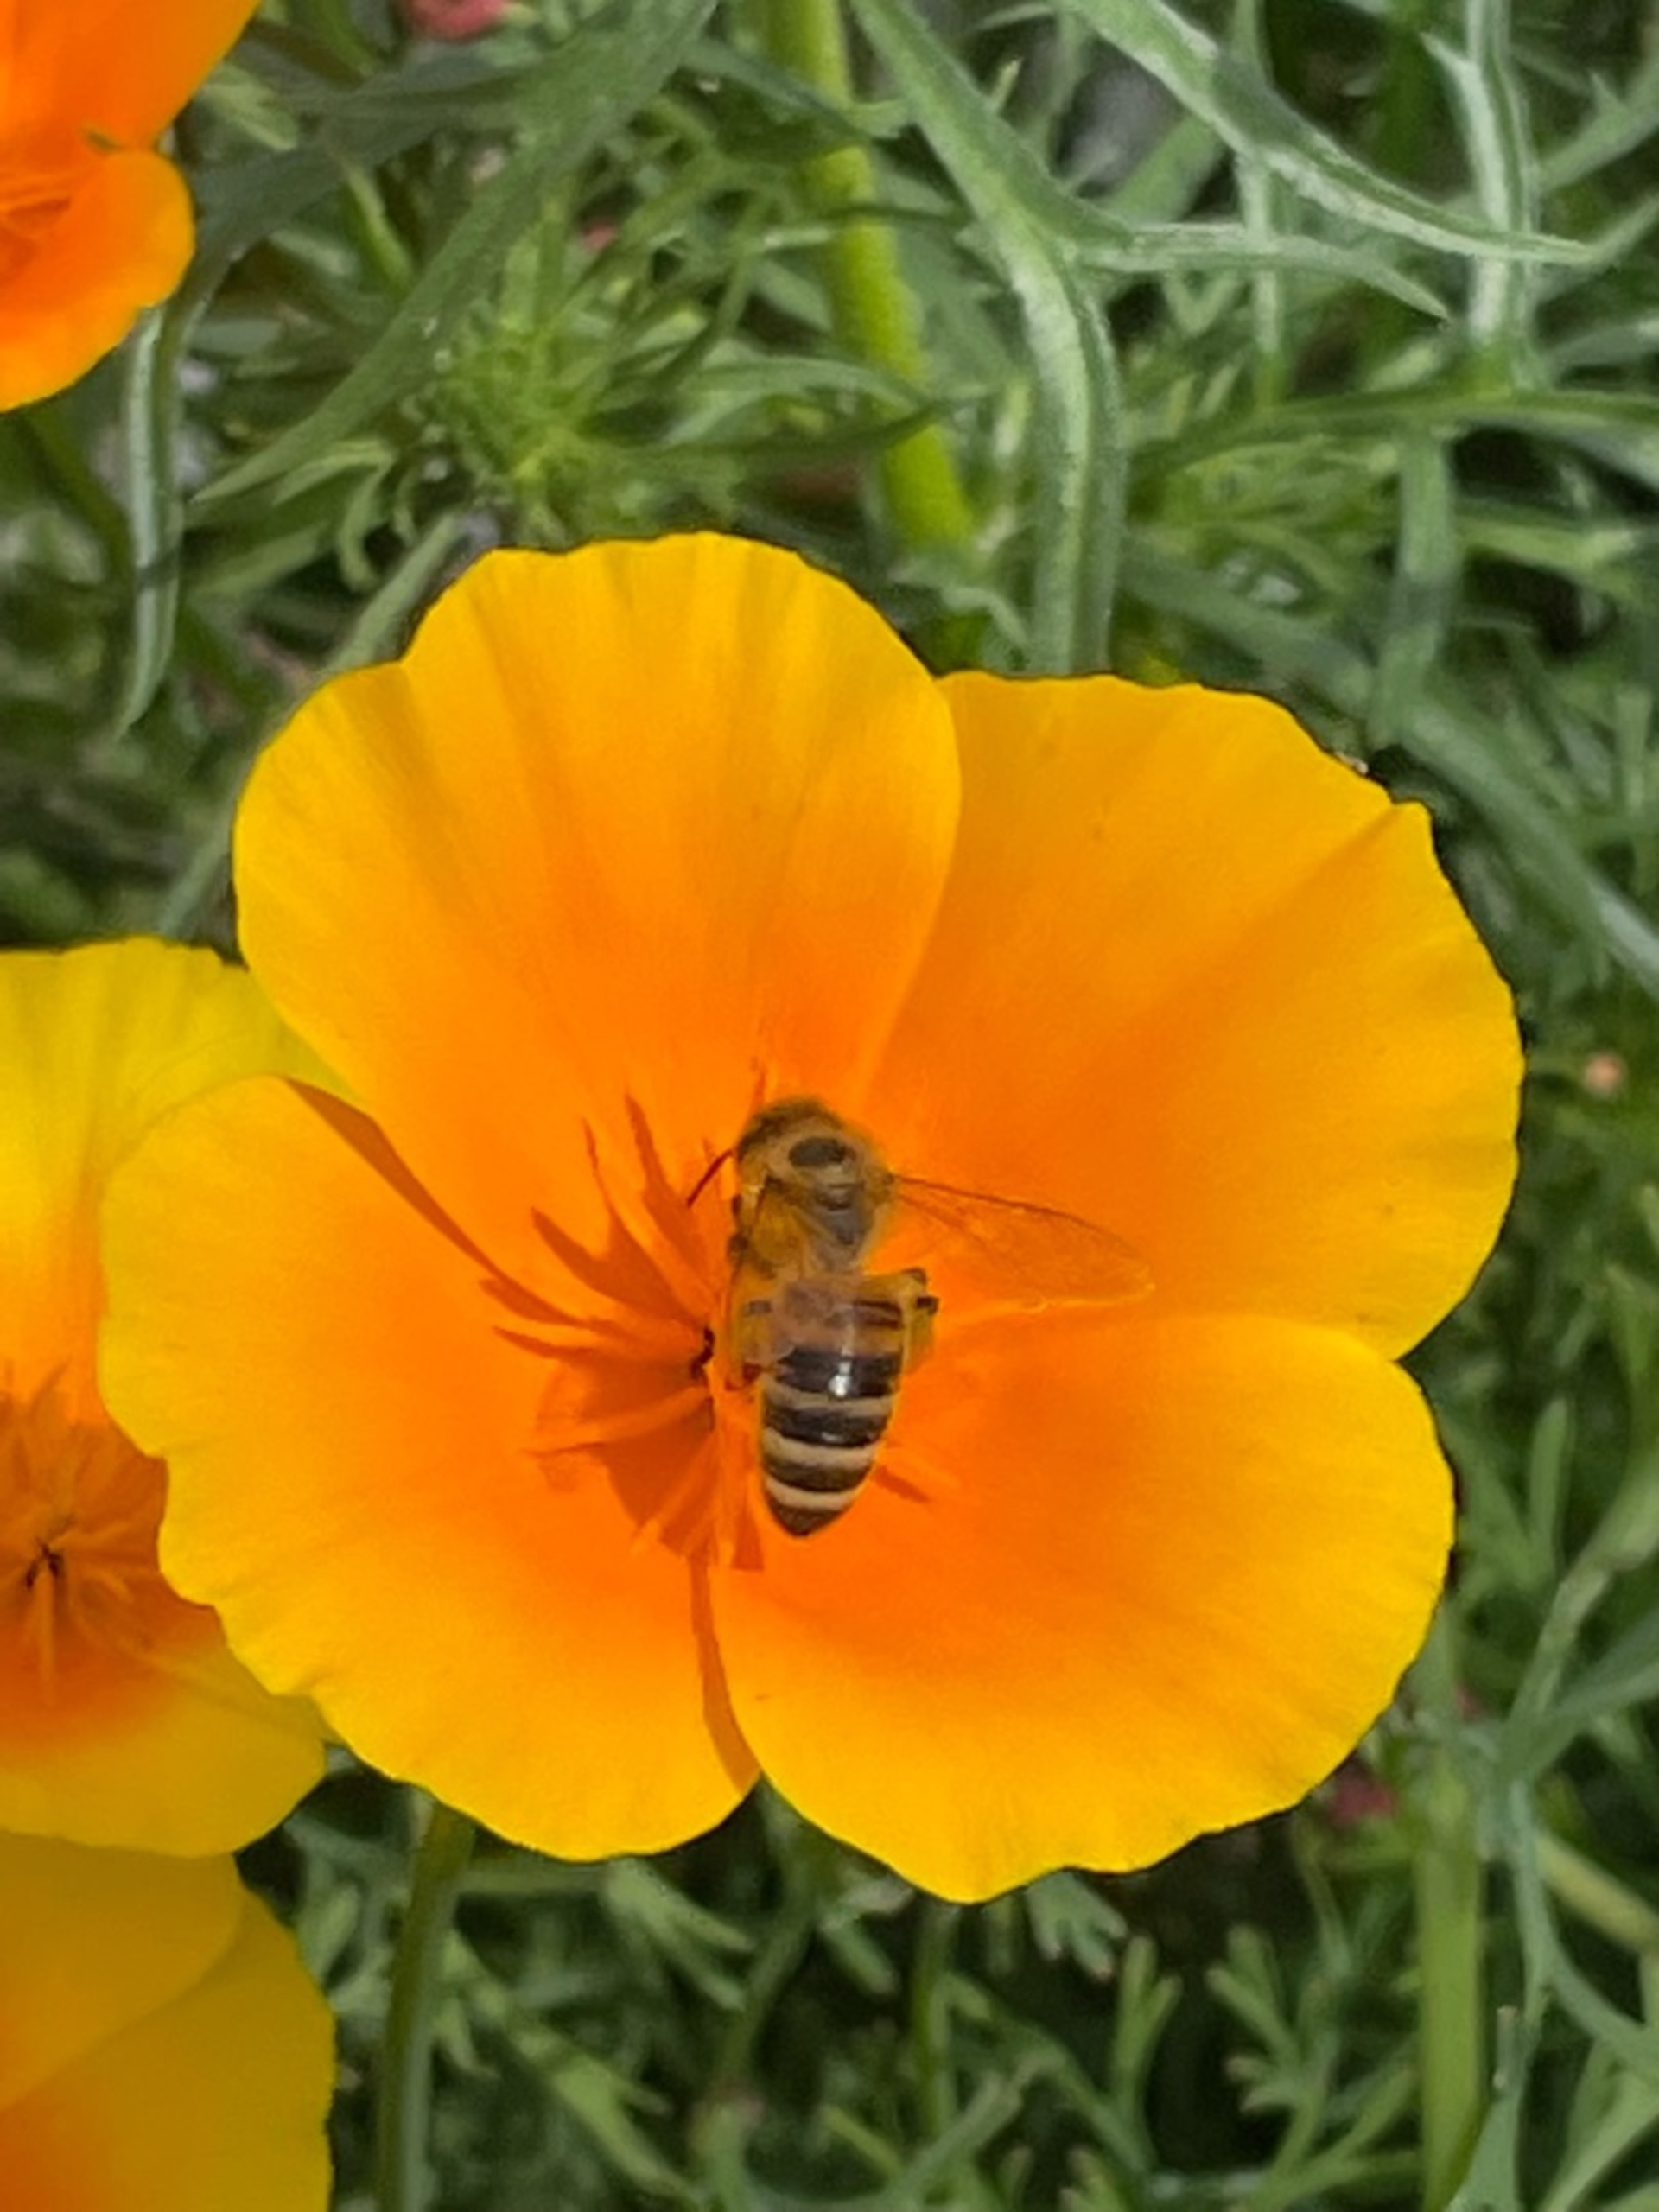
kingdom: Animalia
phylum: Arthropoda
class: Insecta
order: Hymenoptera
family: Apidae
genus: Apis
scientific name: Apis mellifera
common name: Honningbi
